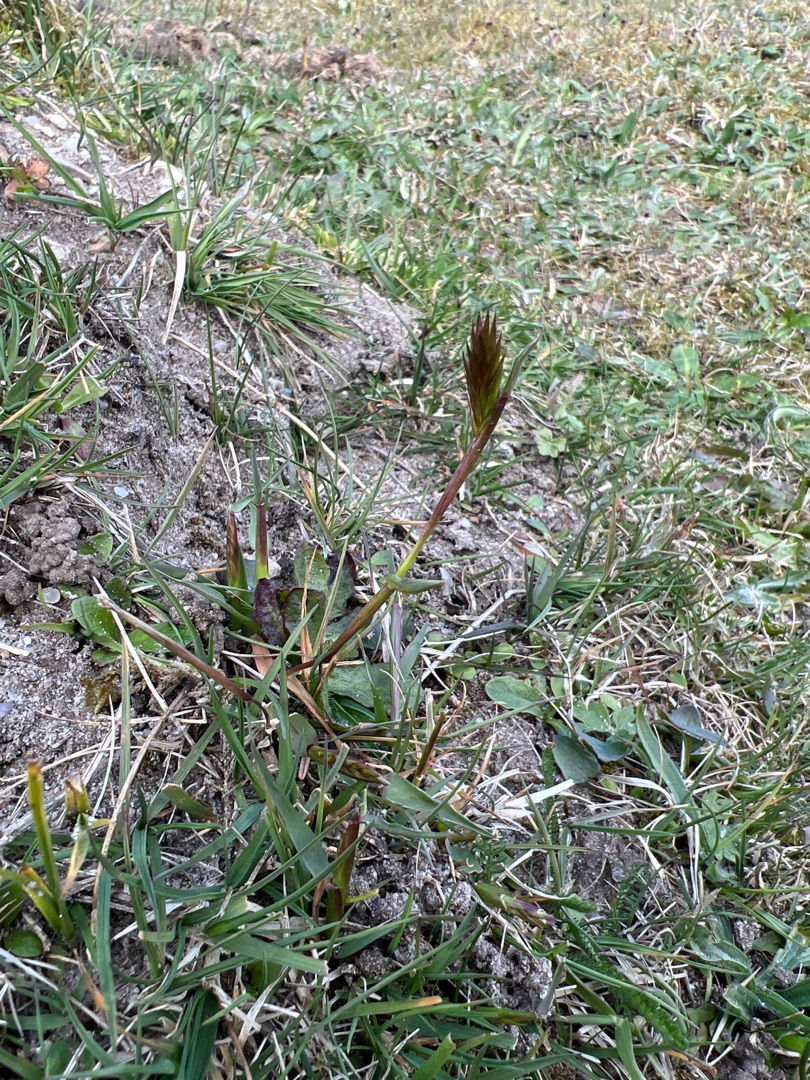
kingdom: Plantae
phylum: Tracheophyta
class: Liliopsida
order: Poales
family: Poaceae
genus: Anthoxanthum
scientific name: Anthoxanthum odoratum
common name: Vellugtende gulaks
